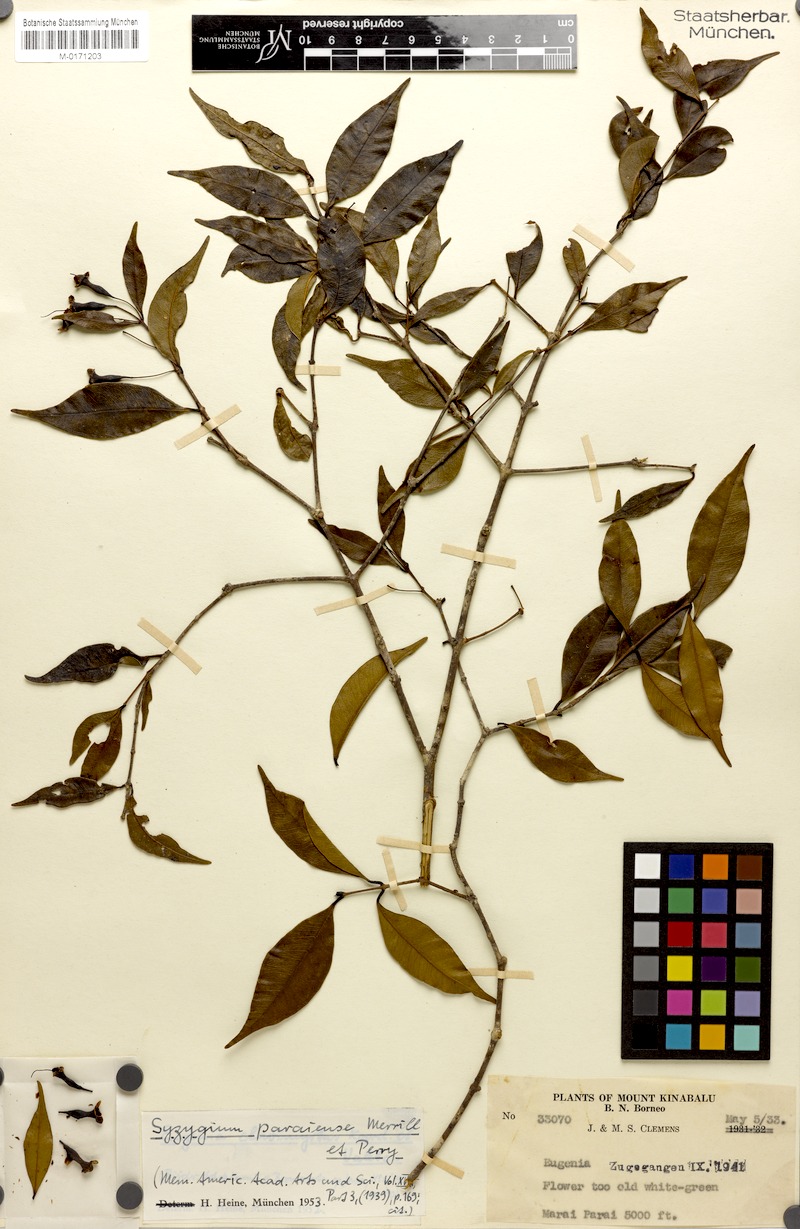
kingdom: Plantae
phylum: Tracheophyta
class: Magnoliopsida
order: Myrtales
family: Myrtaceae
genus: Syzygium
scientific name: Syzygium filiforme
